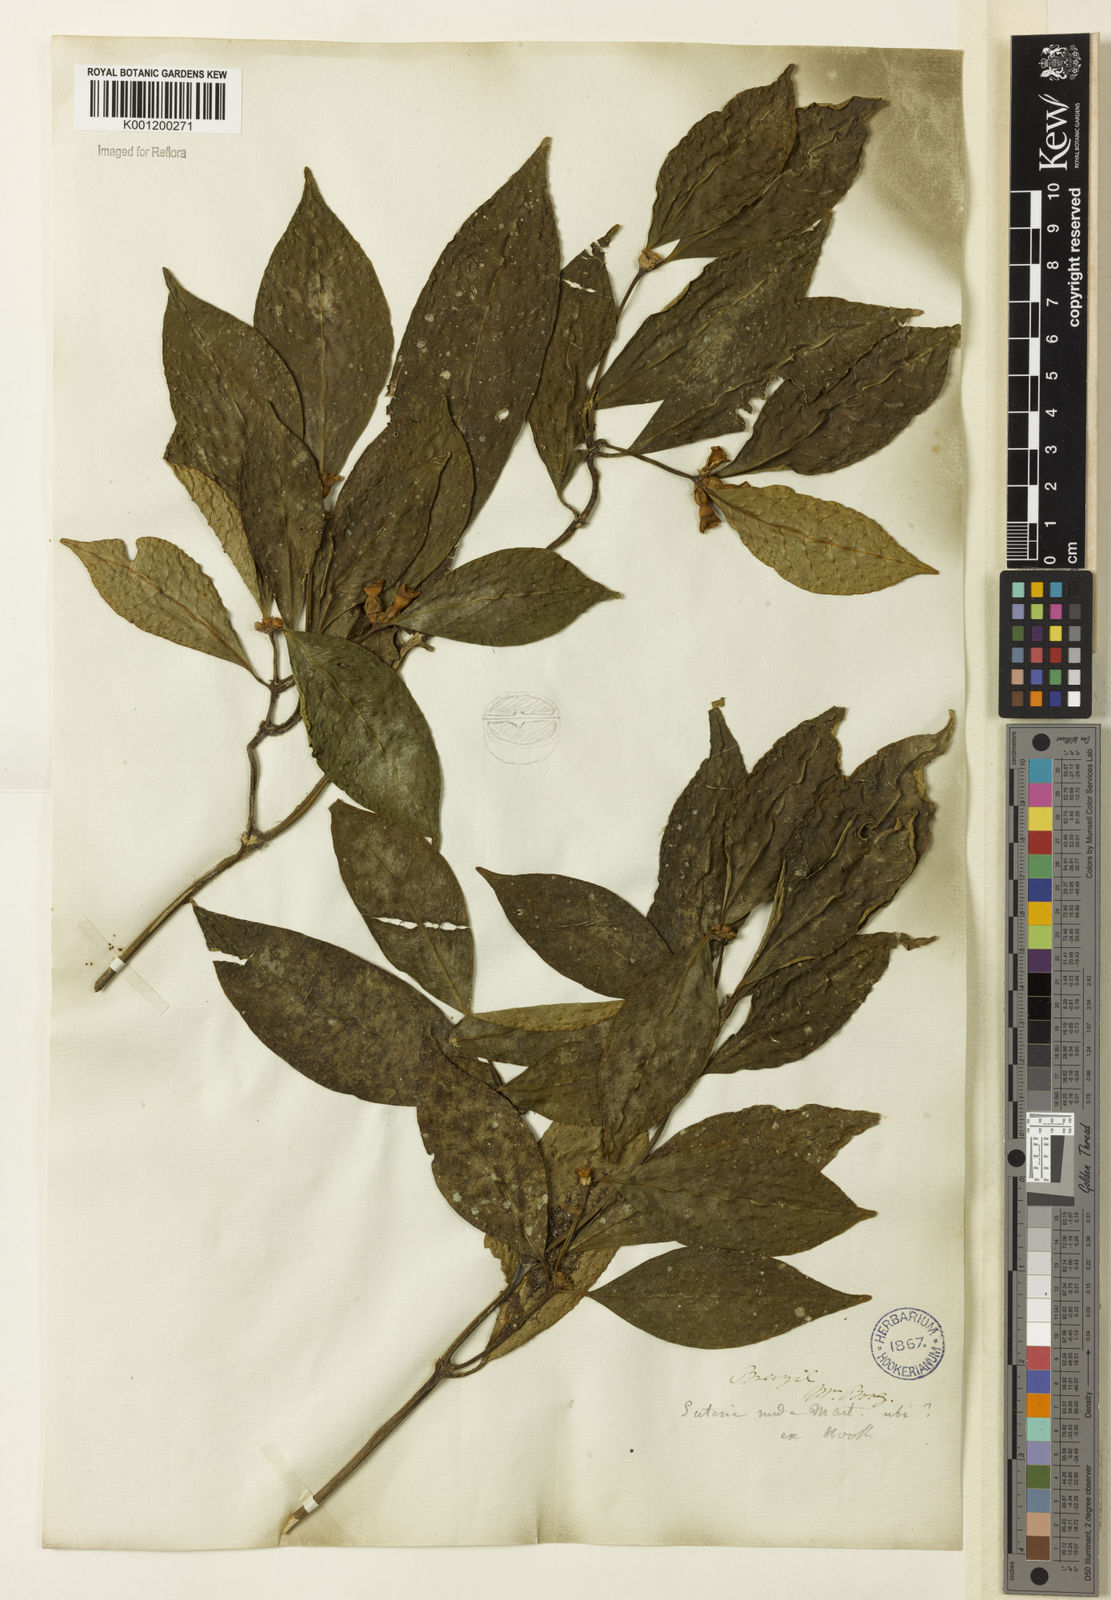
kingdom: Plantae
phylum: Tracheophyta
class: Magnoliopsida
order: Gentianales
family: Rubiaceae
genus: Psychotria
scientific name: Psychotria nuda
